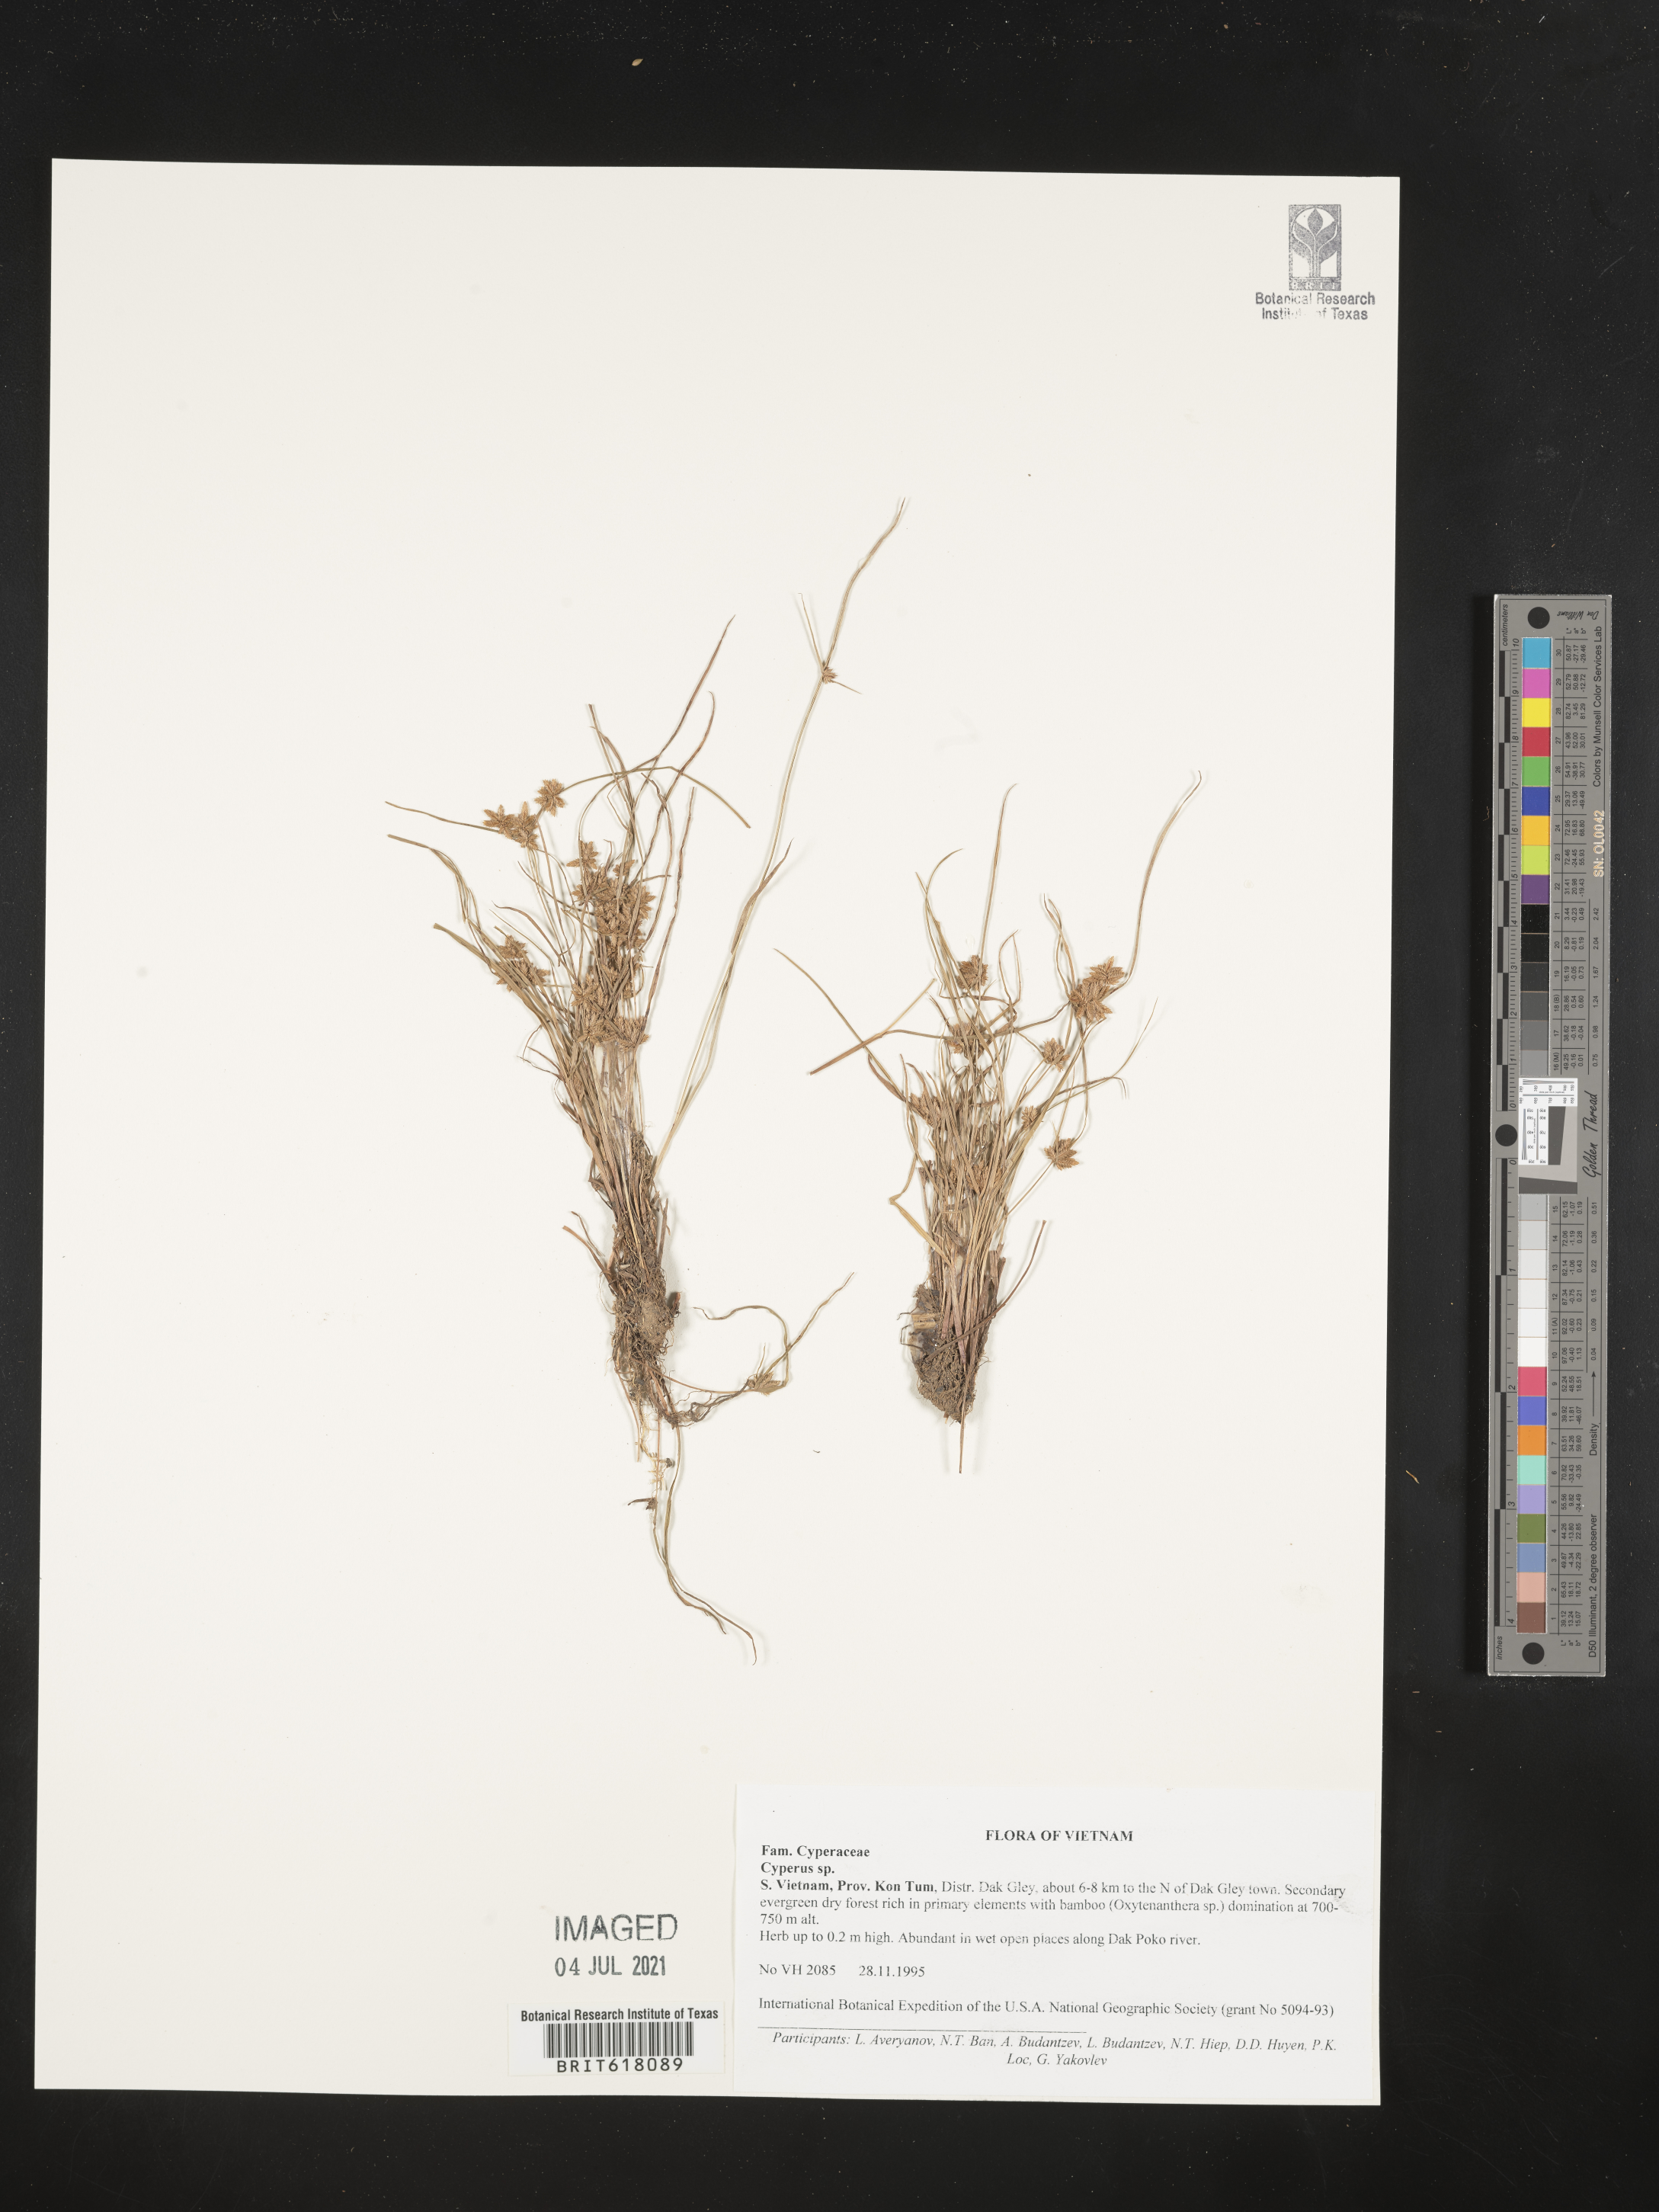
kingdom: Plantae
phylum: Tracheophyta
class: Liliopsida
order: Poales
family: Cyperaceae
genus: Cyperus
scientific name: Cyperus
